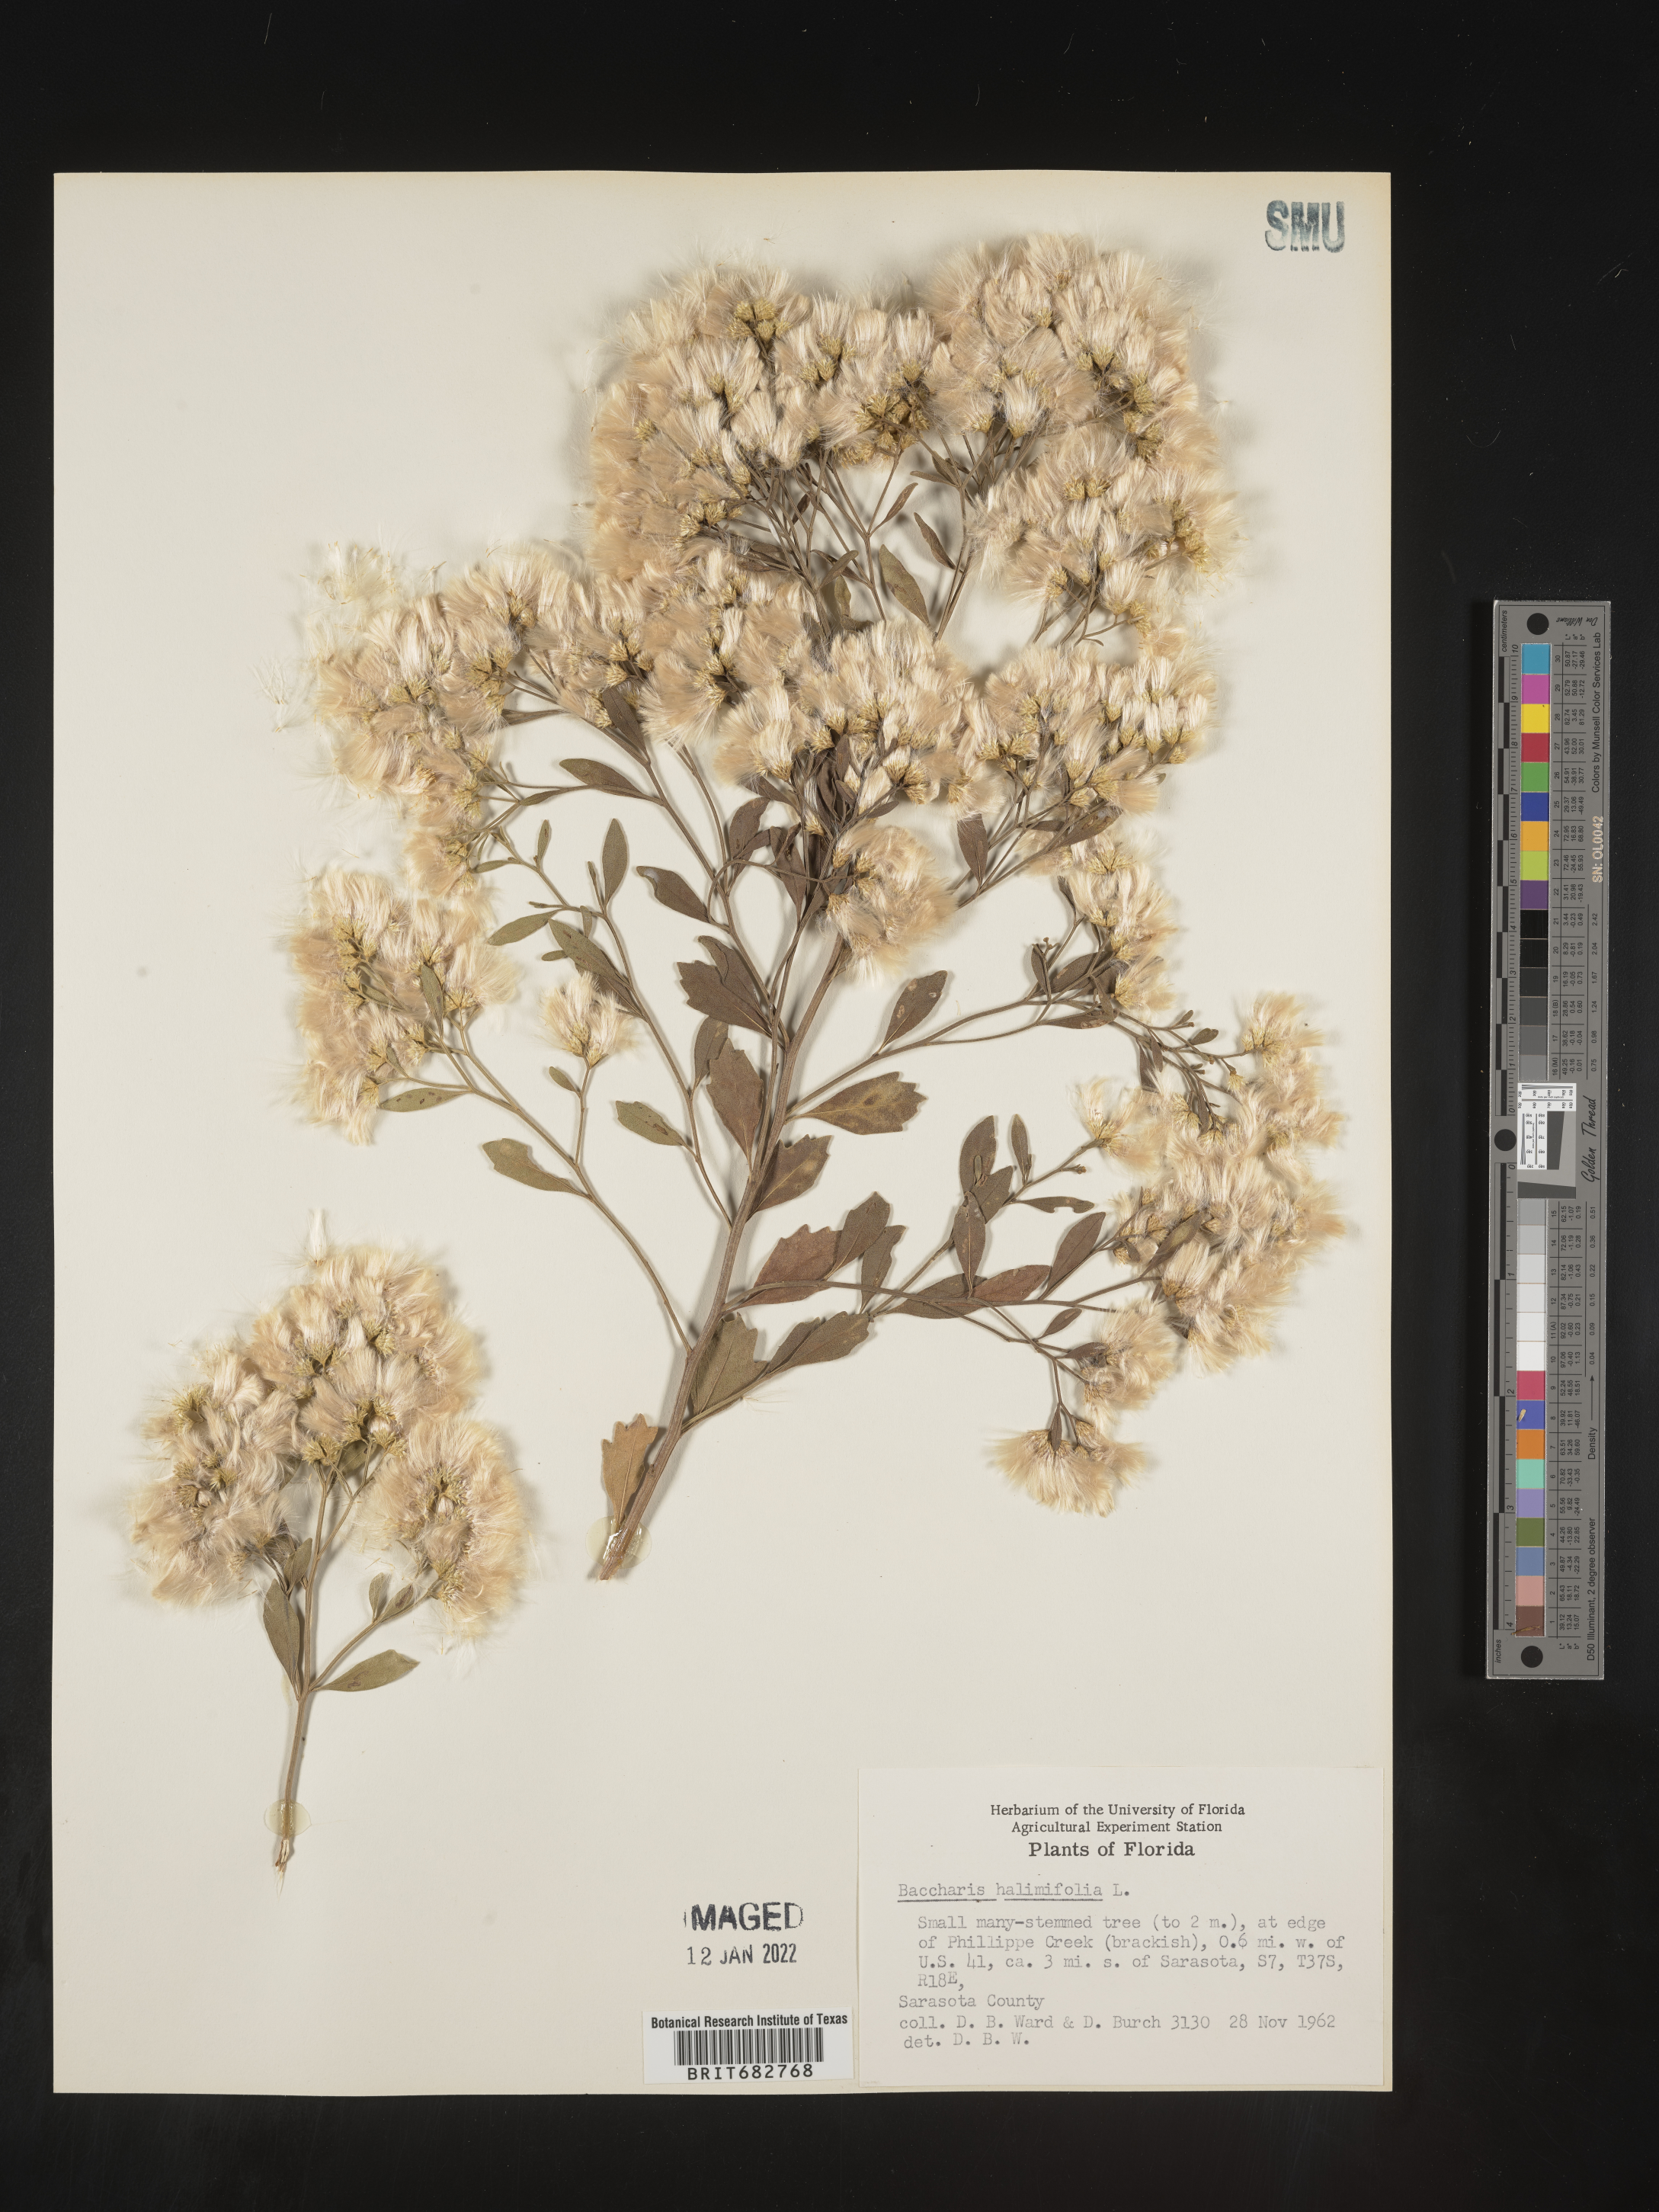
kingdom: Plantae
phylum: Tracheophyta
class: Magnoliopsida
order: Asterales
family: Asteraceae
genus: Nidorella
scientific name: Nidorella ivifolia
